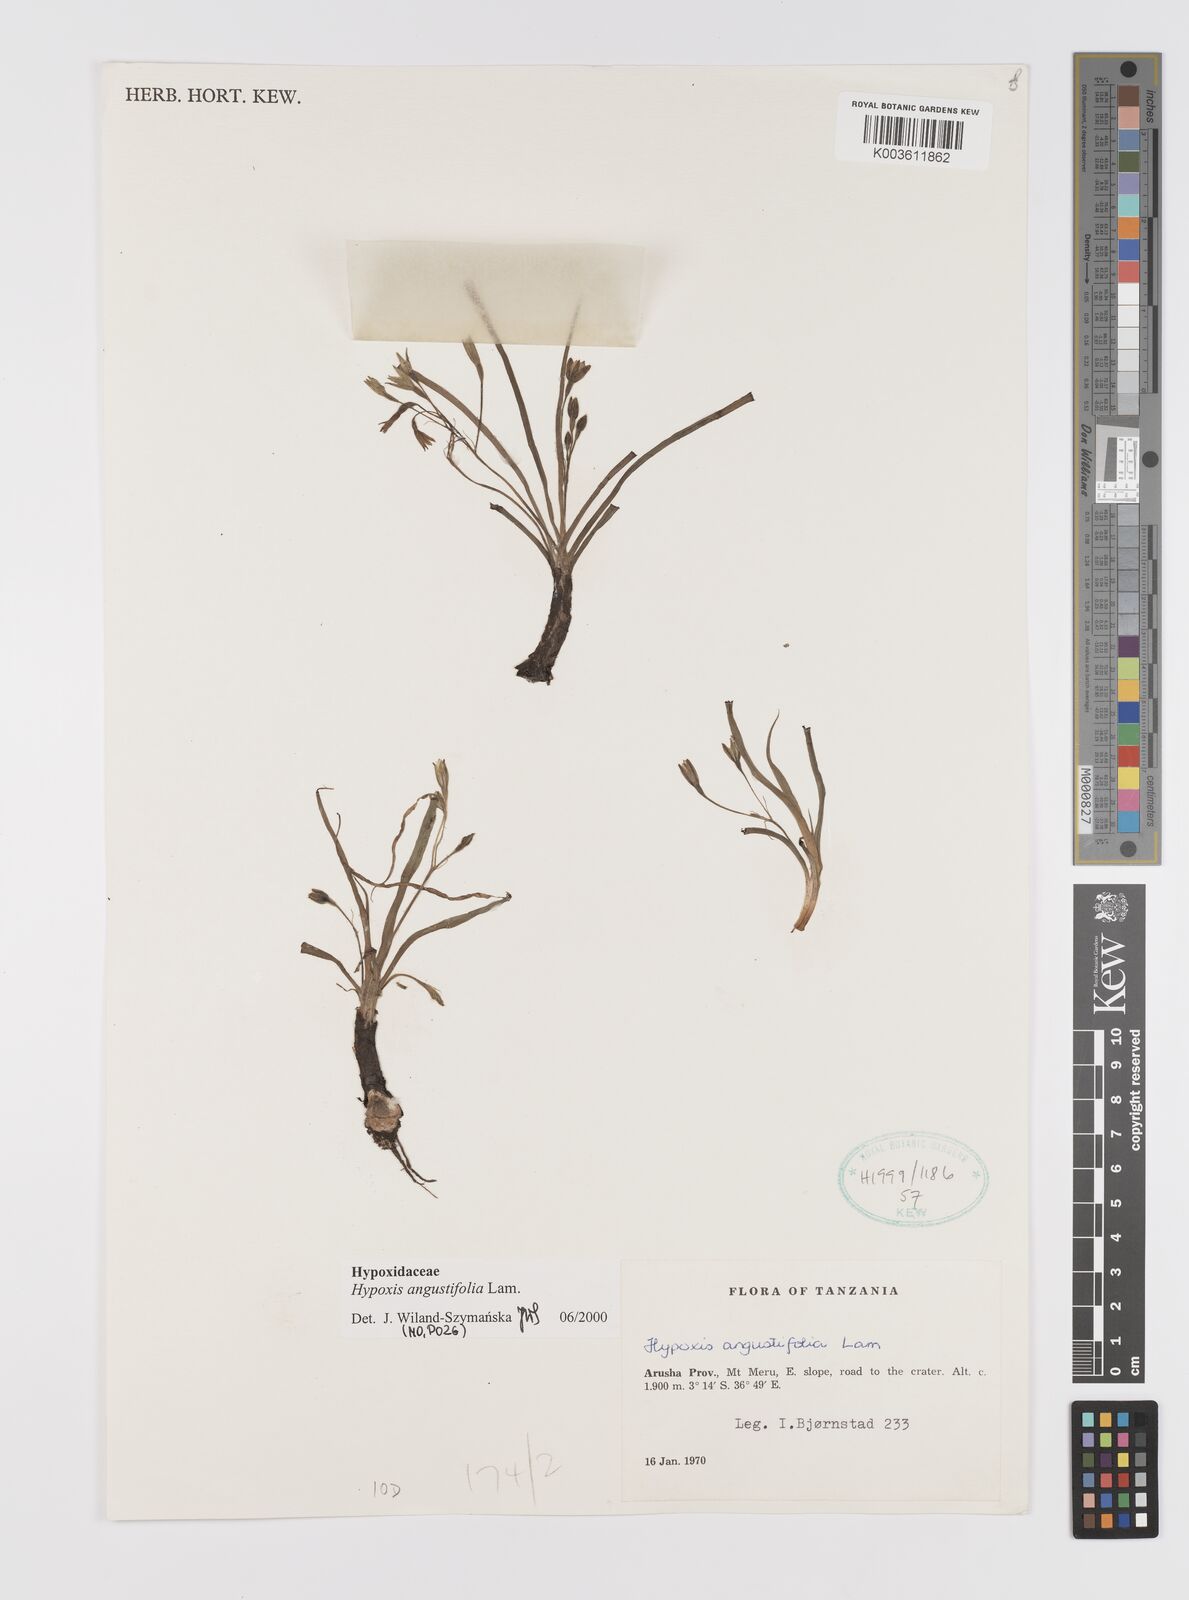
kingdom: Plantae
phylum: Tracheophyta
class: Liliopsida
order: Asparagales
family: Hypoxidaceae
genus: Hypoxis
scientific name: Hypoxis angustifolia
